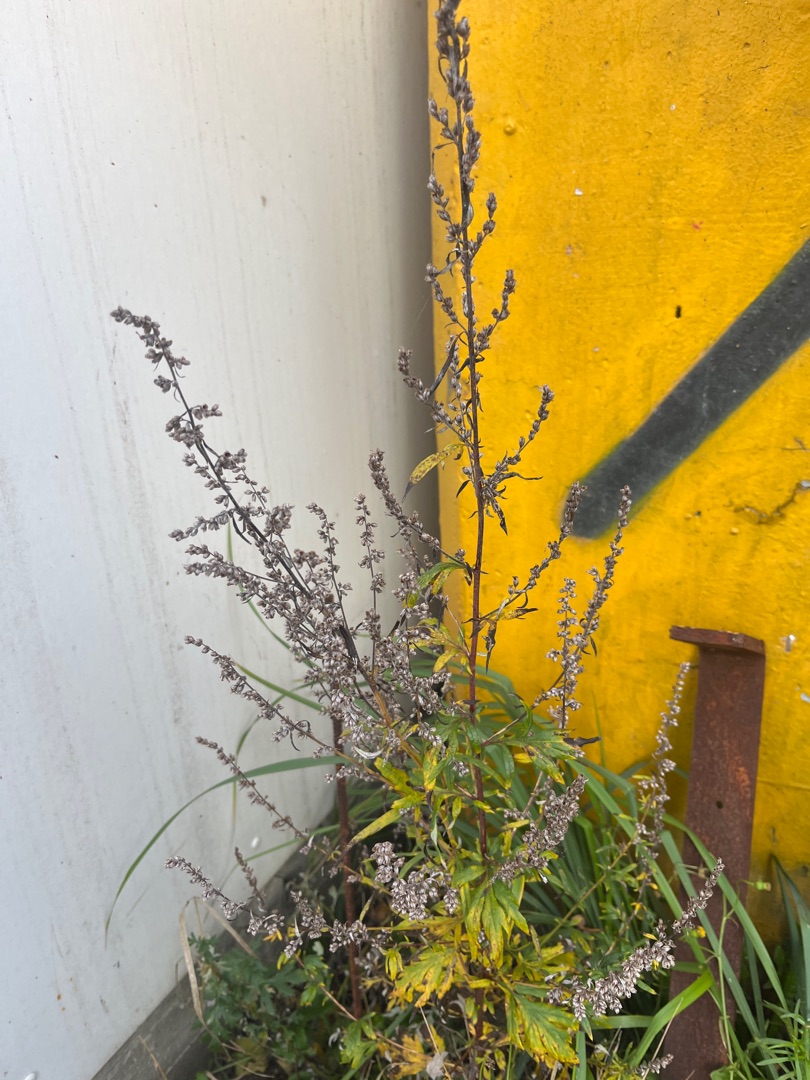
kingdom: Plantae
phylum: Tracheophyta
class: Magnoliopsida
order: Asterales
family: Asteraceae
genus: Artemisia
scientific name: Artemisia vulgaris
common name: Grå-bynke
